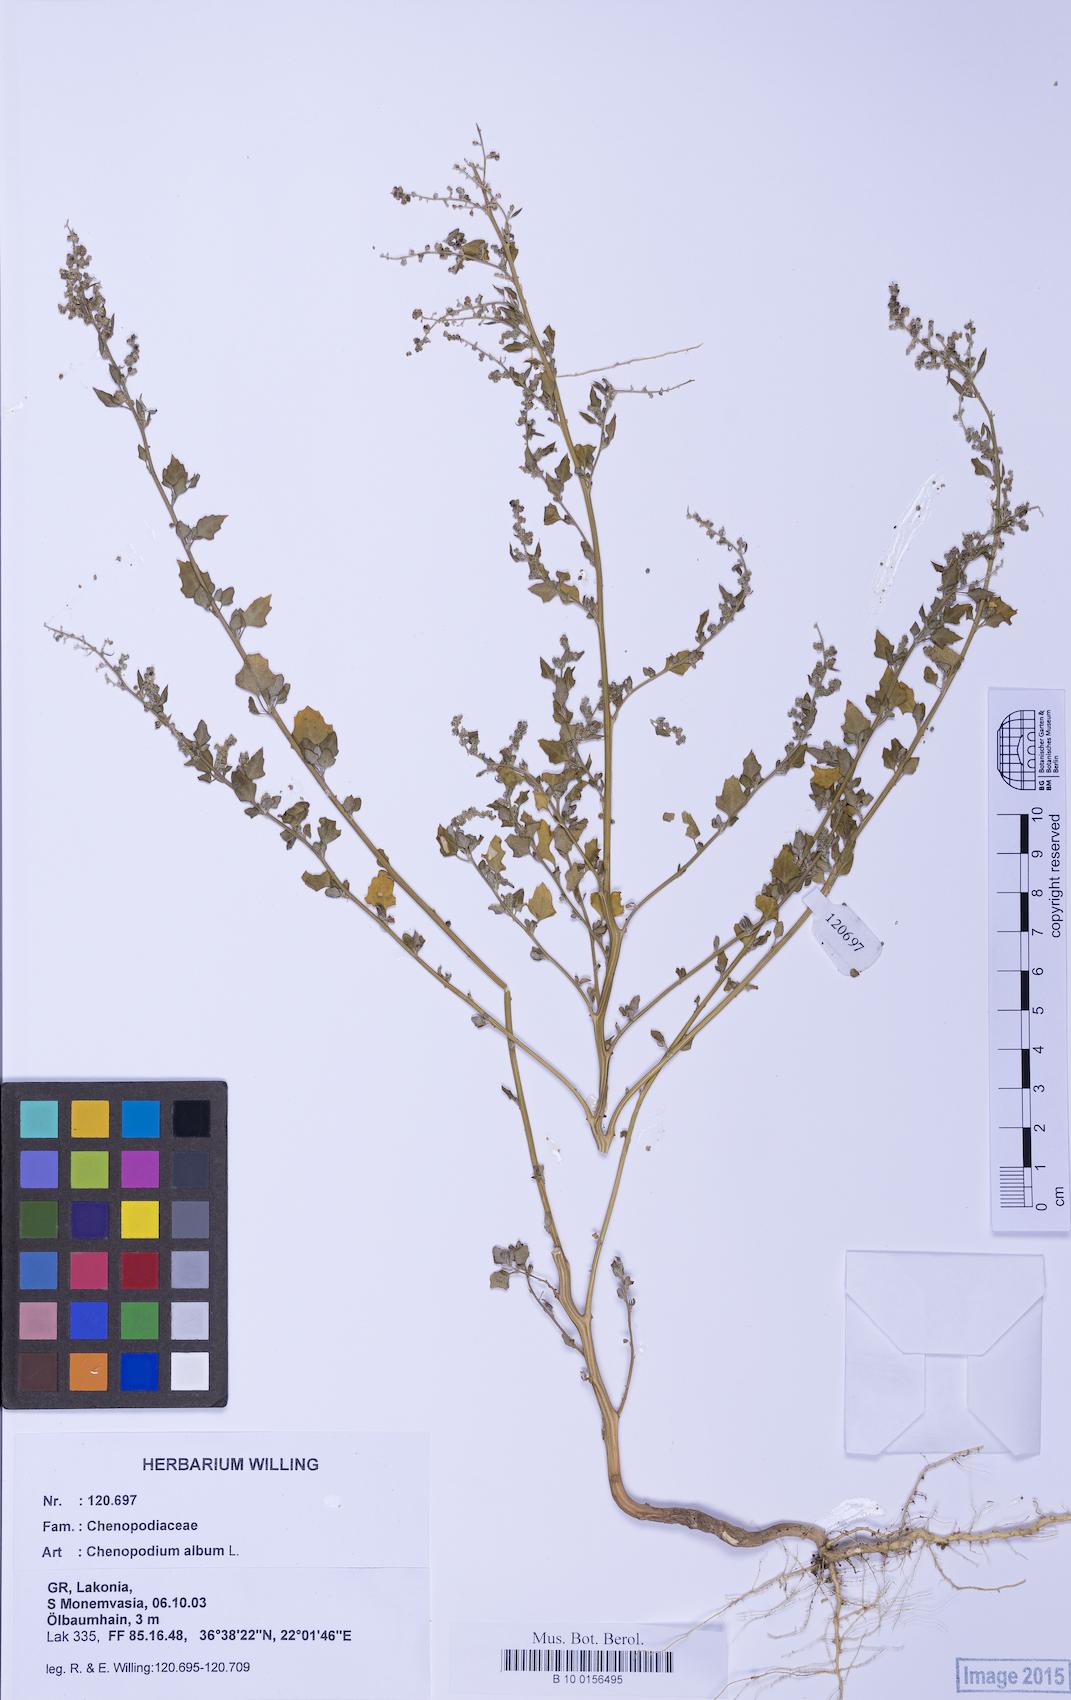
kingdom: Plantae
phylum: Tracheophyta
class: Magnoliopsida
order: Caryophyllales
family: Amaranthaceae
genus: Chenopodium
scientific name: Chenopodium opulifolium
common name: Grey goosefoot
